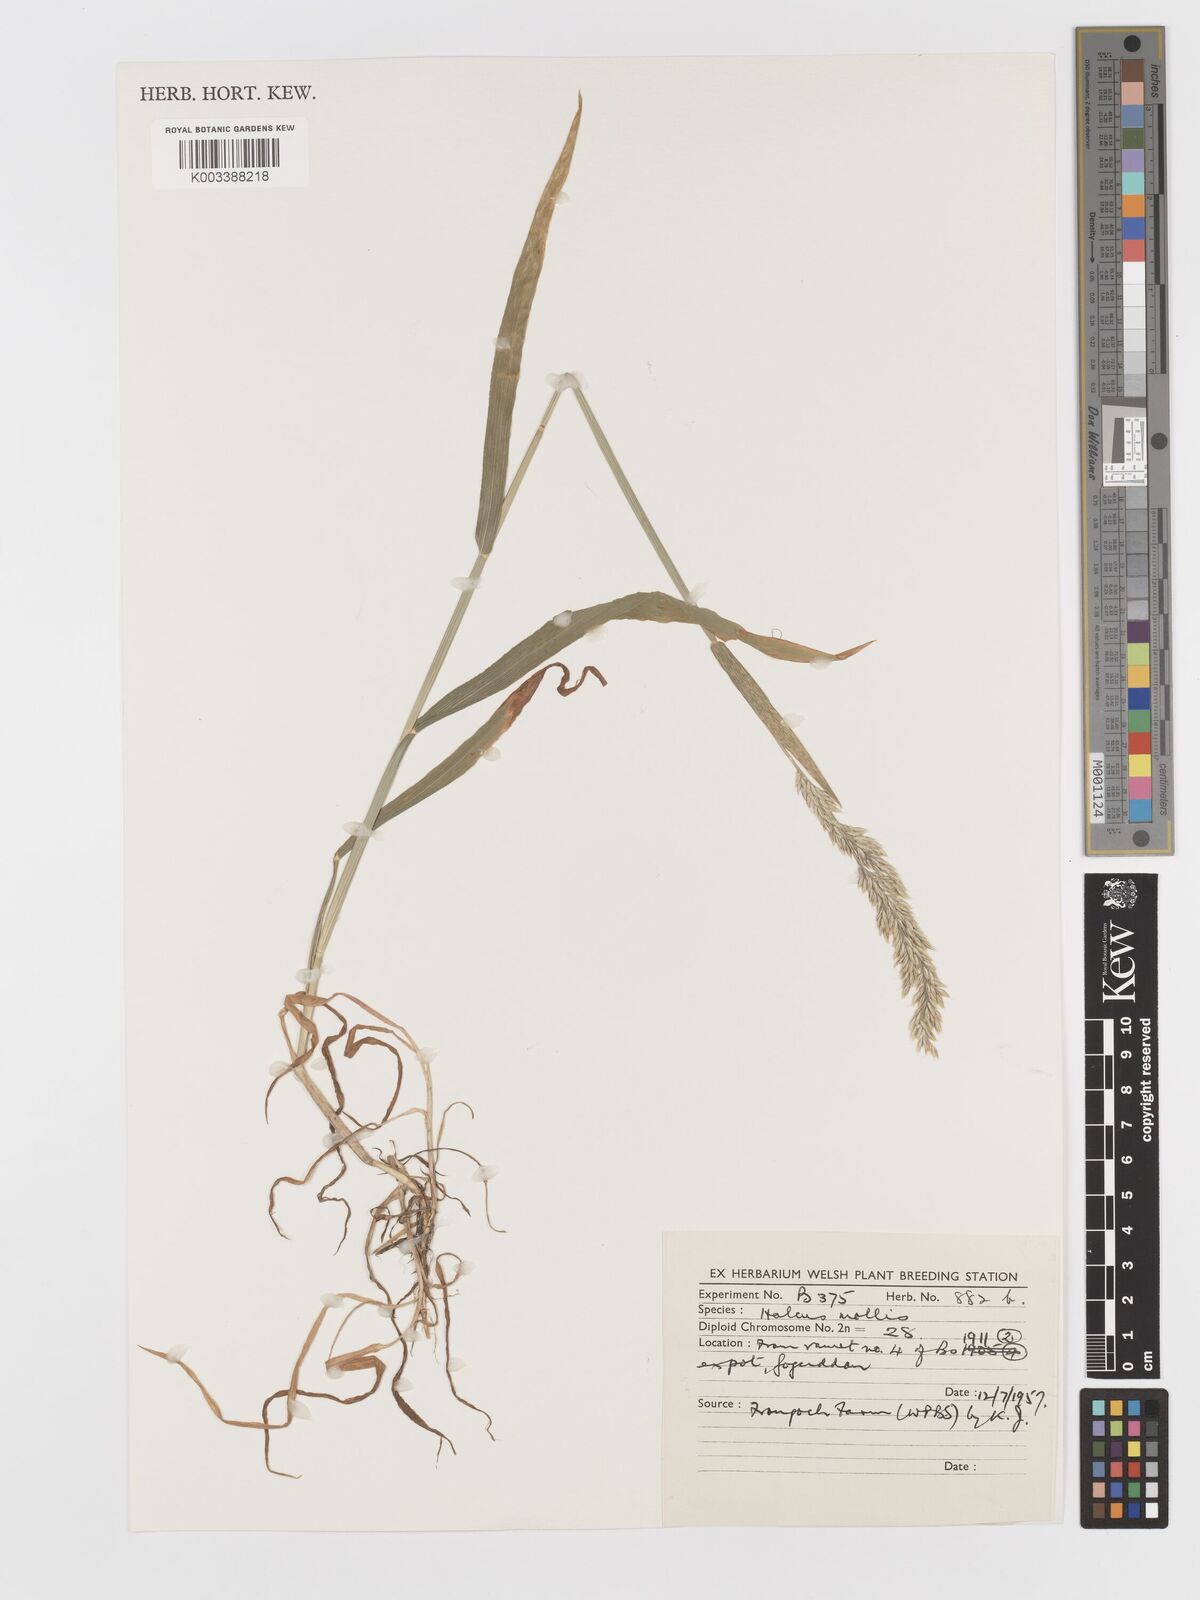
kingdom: Plantae
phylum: Tracheophyta
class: Liliopsida
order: Poales
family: Poaceae
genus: Holcus
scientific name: Holcus mollis
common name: Creeping velvetgrass
